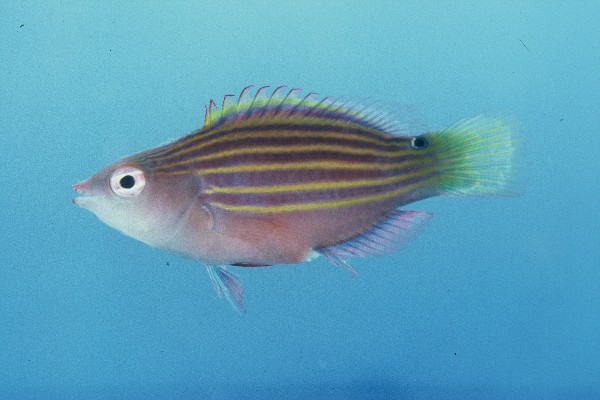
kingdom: Animalia
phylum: Chordata
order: Perciformes
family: Labridae
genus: Pseudocheilinus
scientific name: Pseudocheilinus hexataenia
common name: Sixline wrasse
